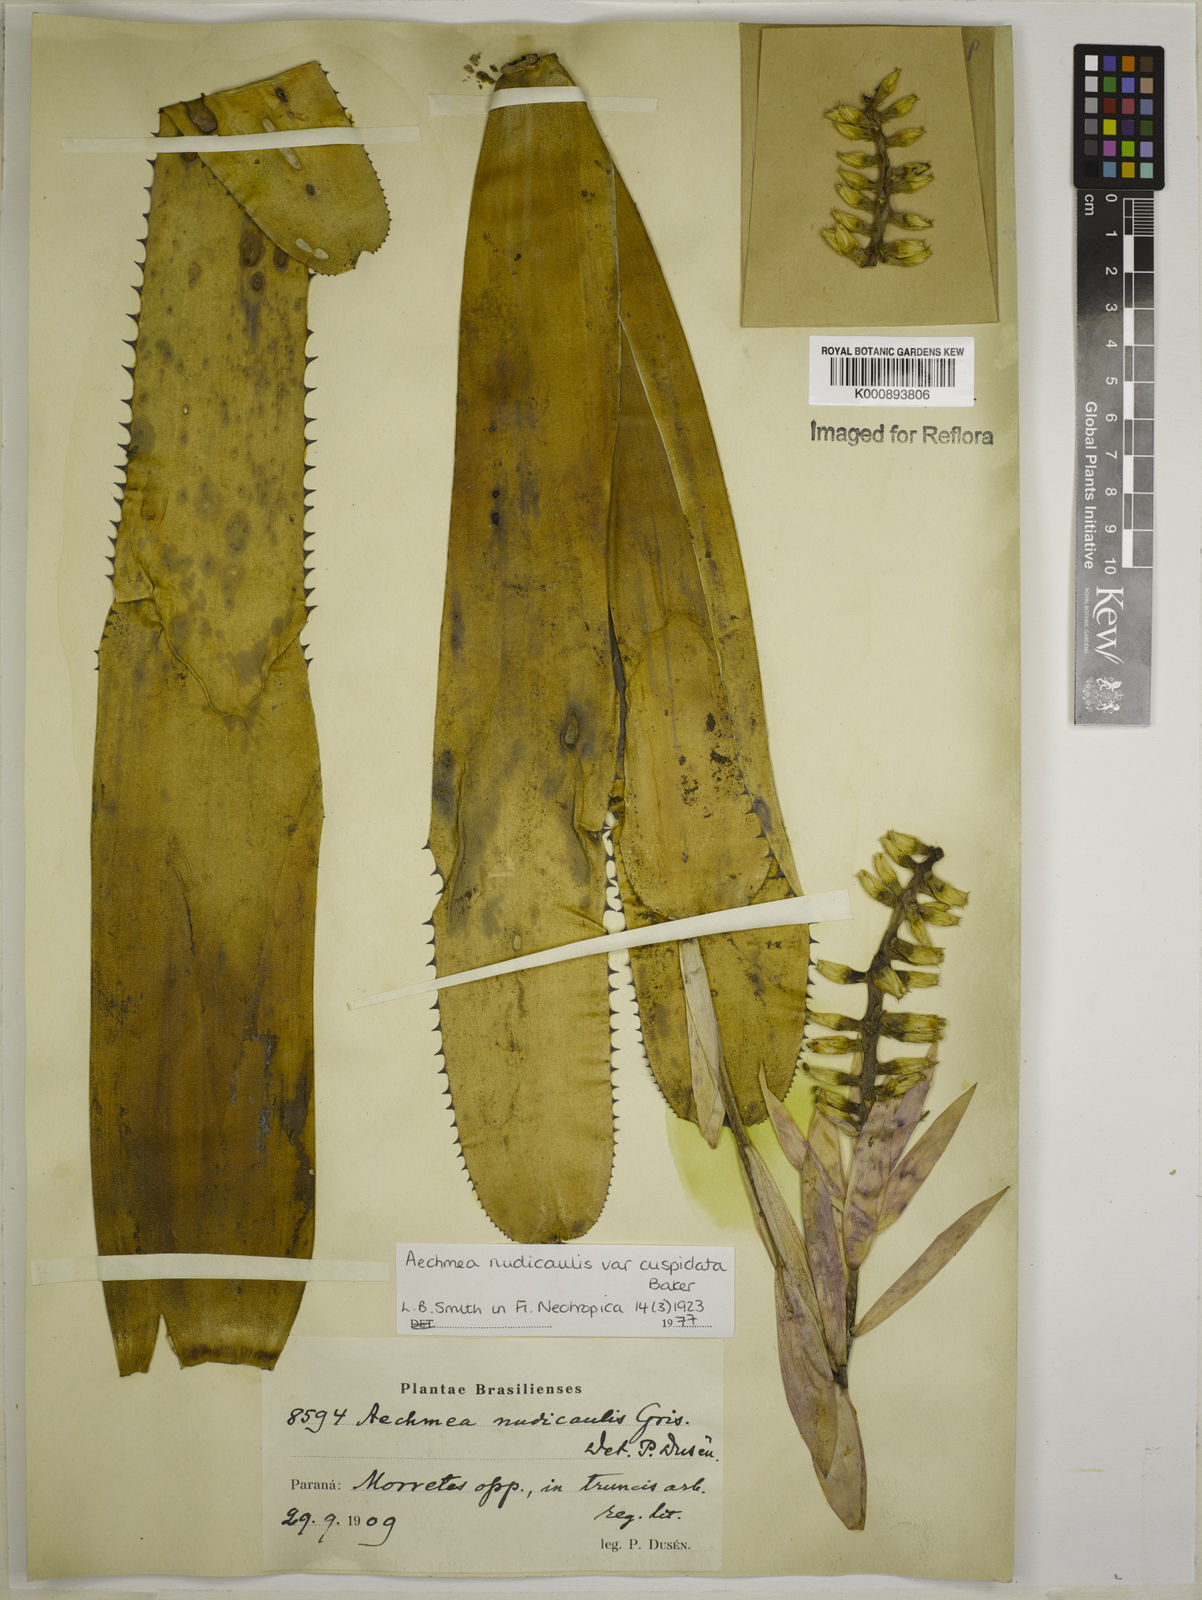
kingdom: Plantae
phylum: Tracheophyta
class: Liliopsida
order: Poales
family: Bromeliaceae
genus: Aechmea
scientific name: Aechmea nudicaulis
